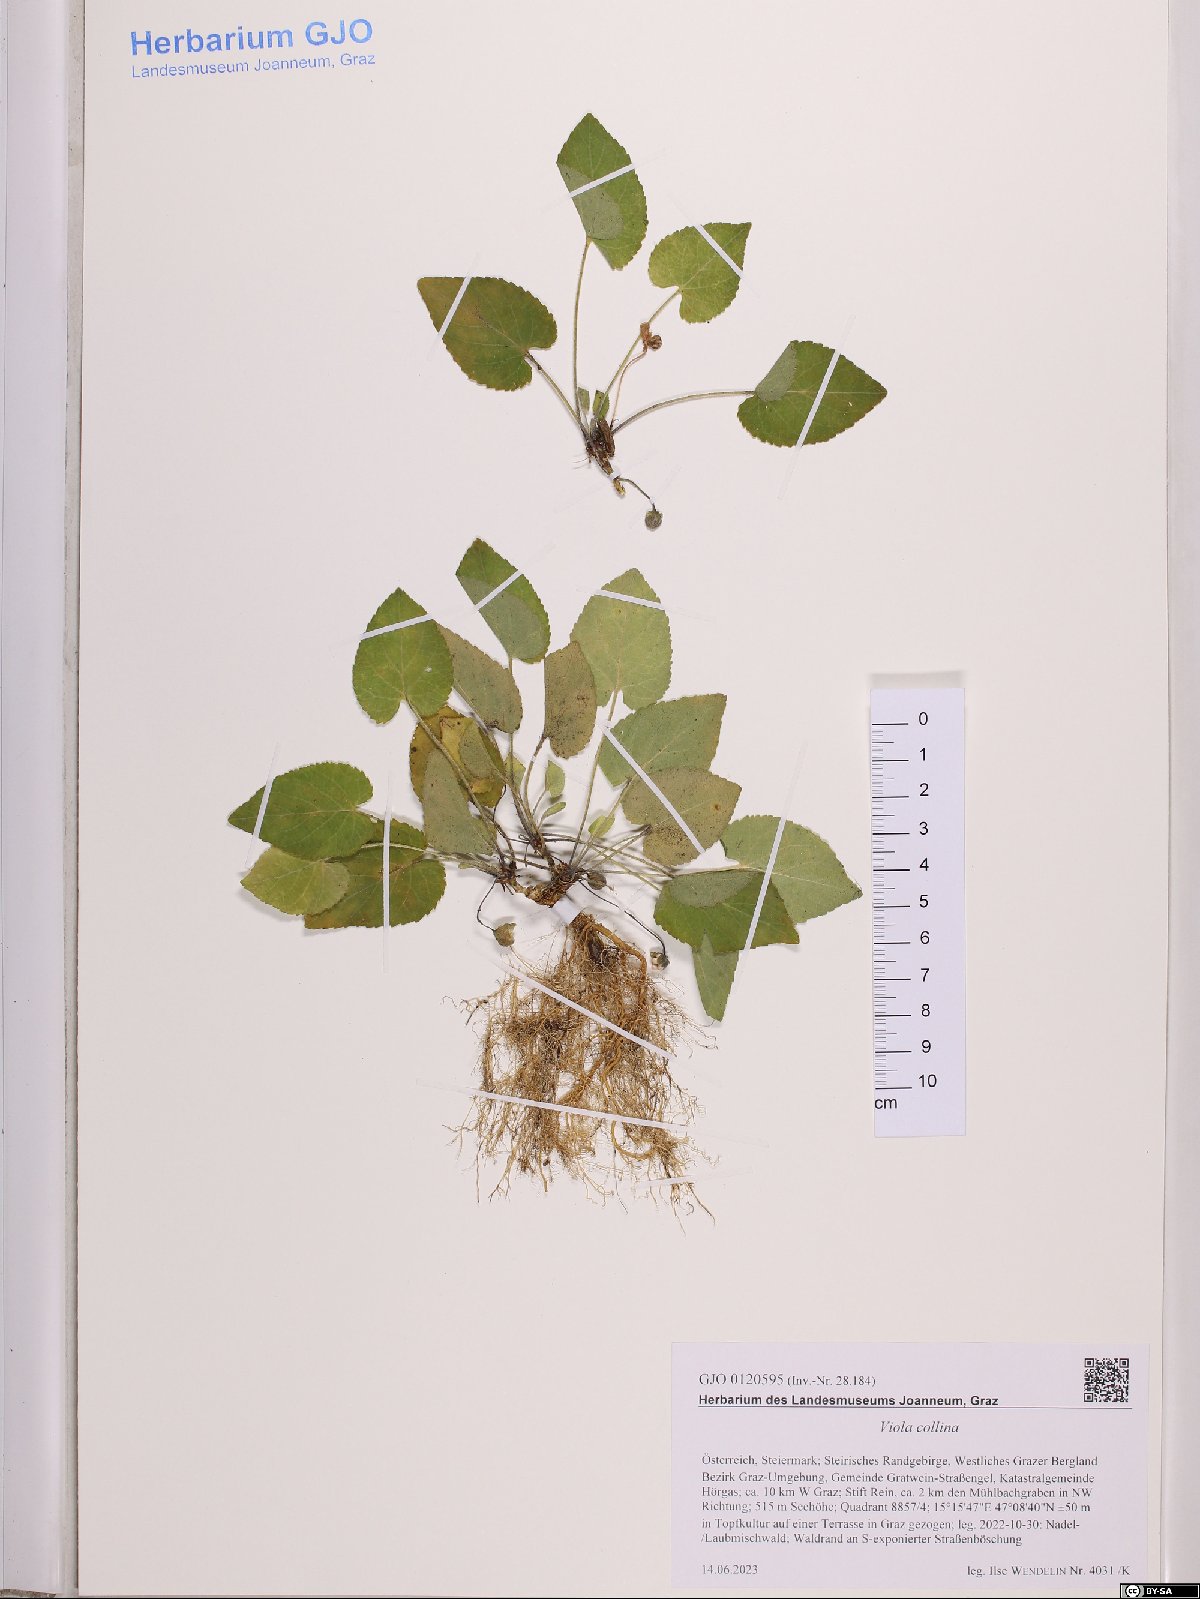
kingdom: Plantae
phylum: Tracheophyta
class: Magnoliopsida
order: Malpighiales
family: Violaceae
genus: Viola
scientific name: Viola collina
